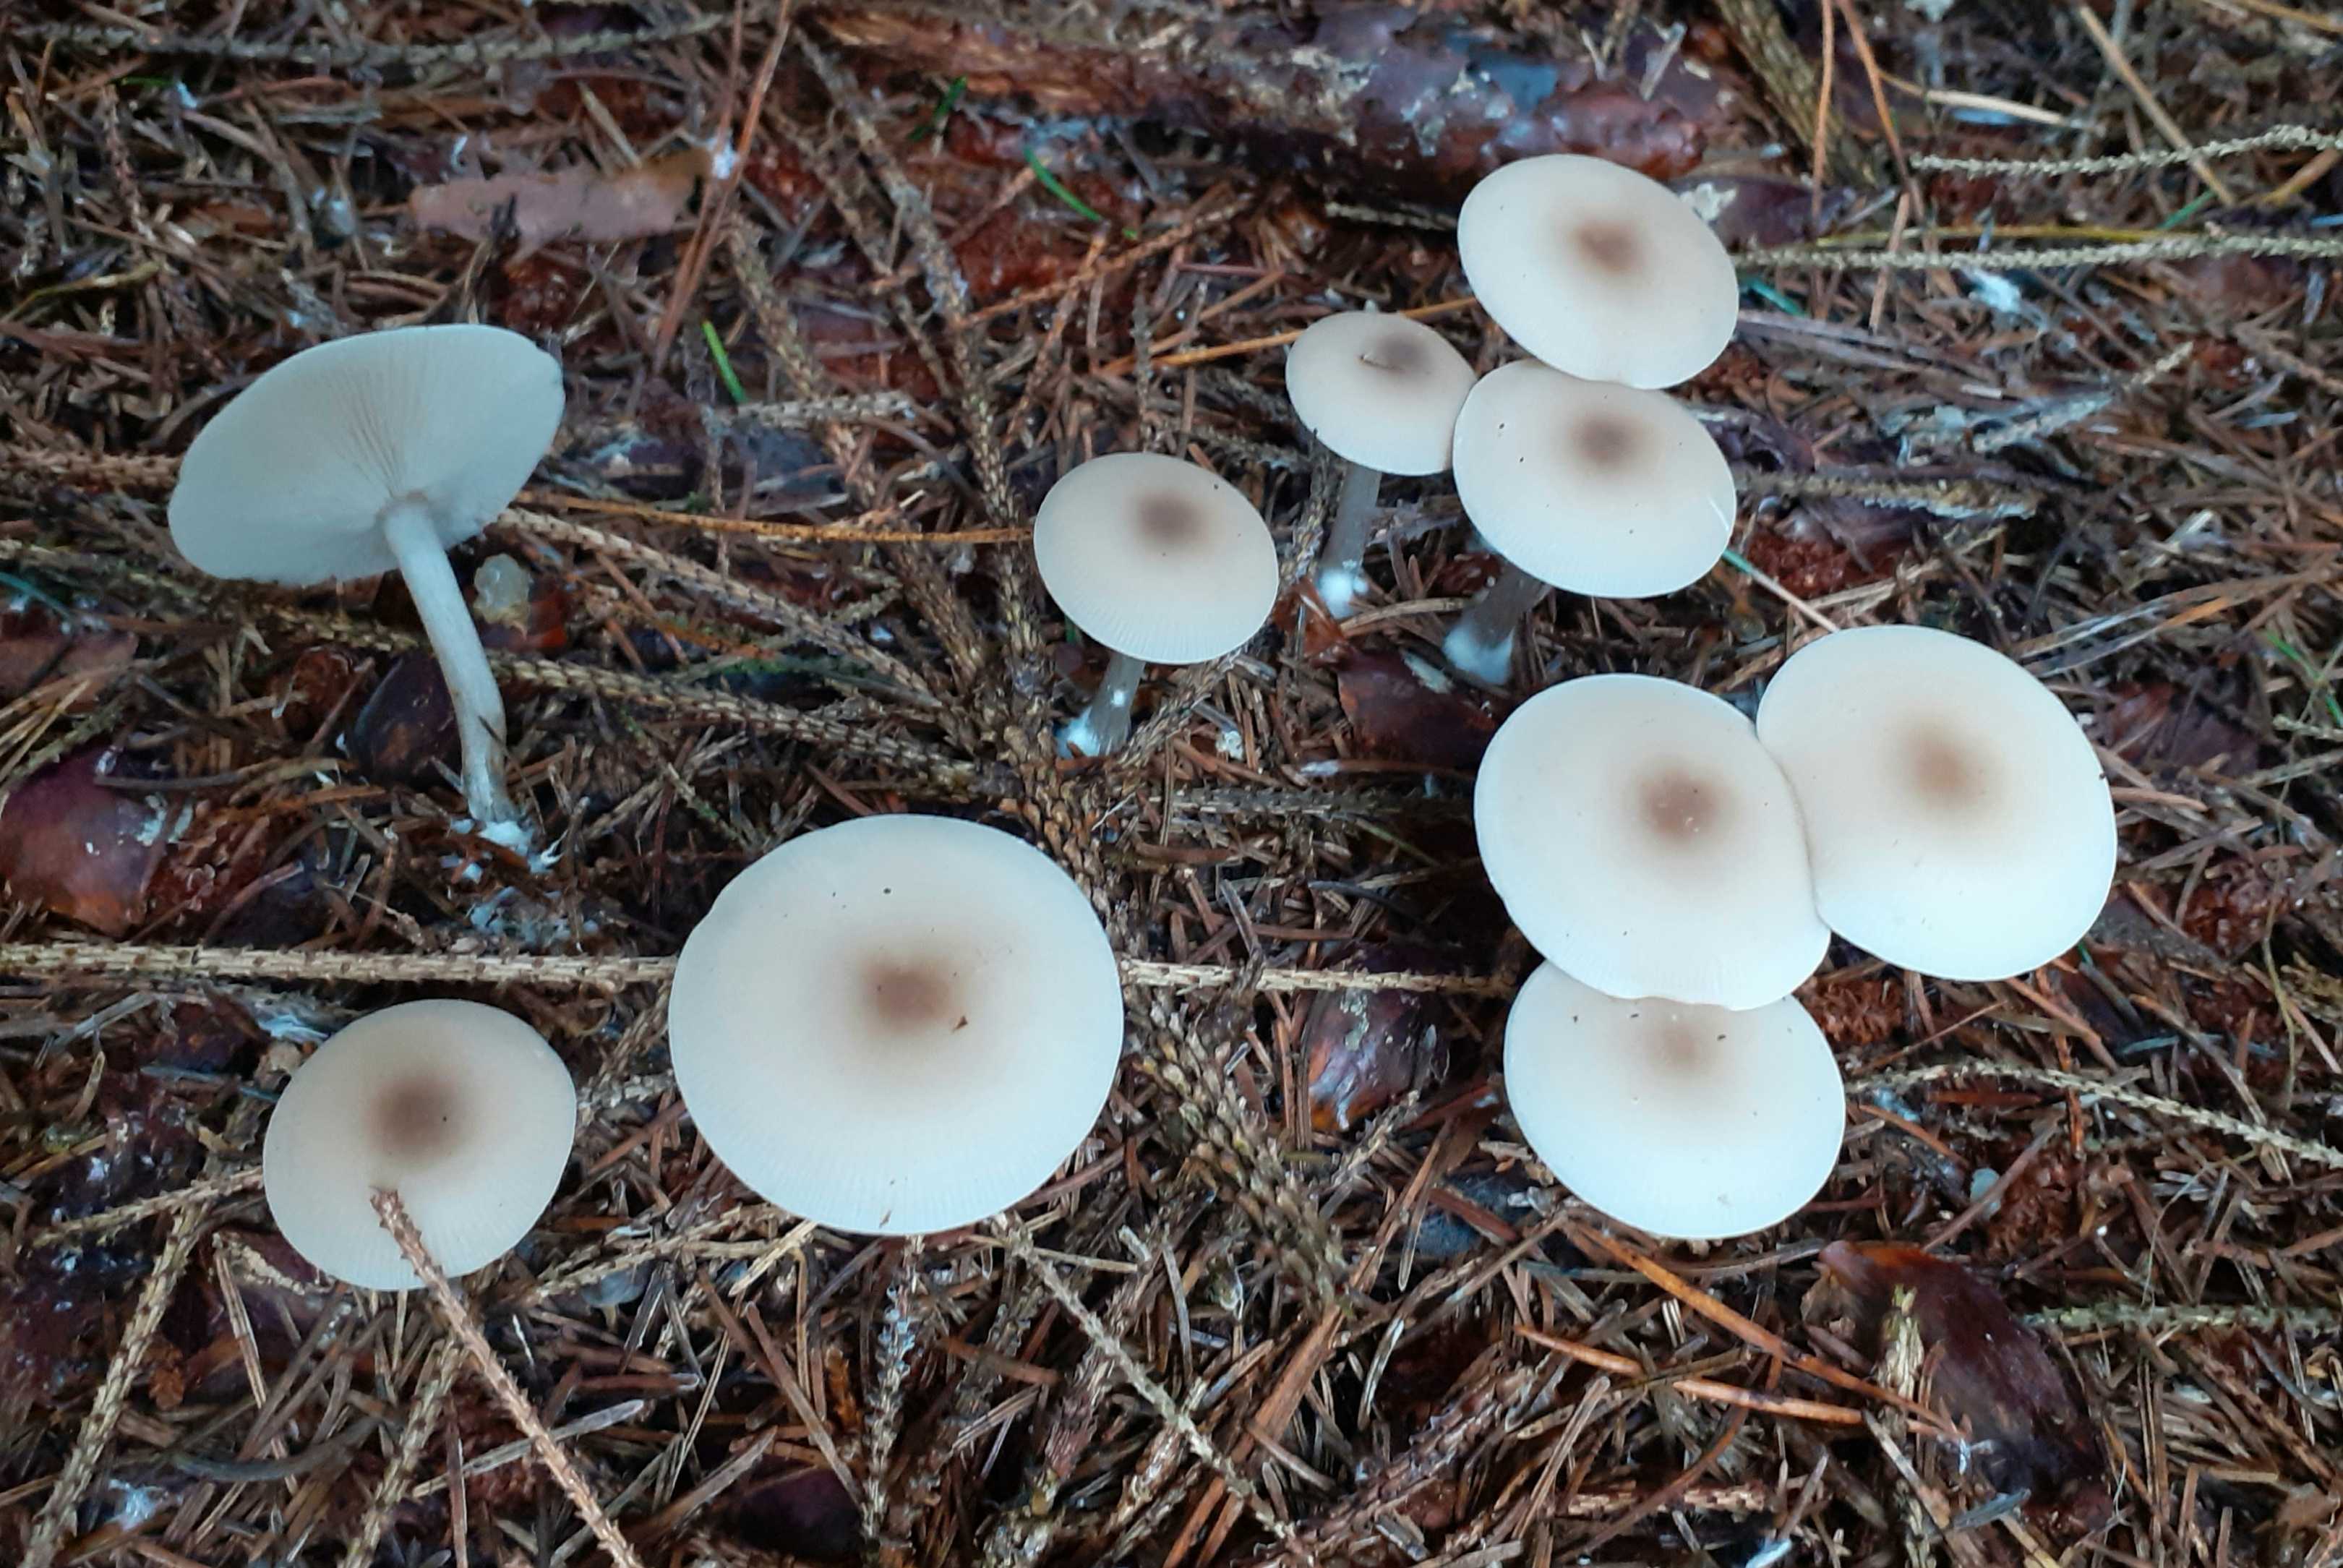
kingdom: Fungi
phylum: Basidiomycota
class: Agaricomycetes
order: Agaricales
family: Tricholomataceae
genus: Clitocybe
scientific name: Clitocybe metachroa
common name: grå tragthat
